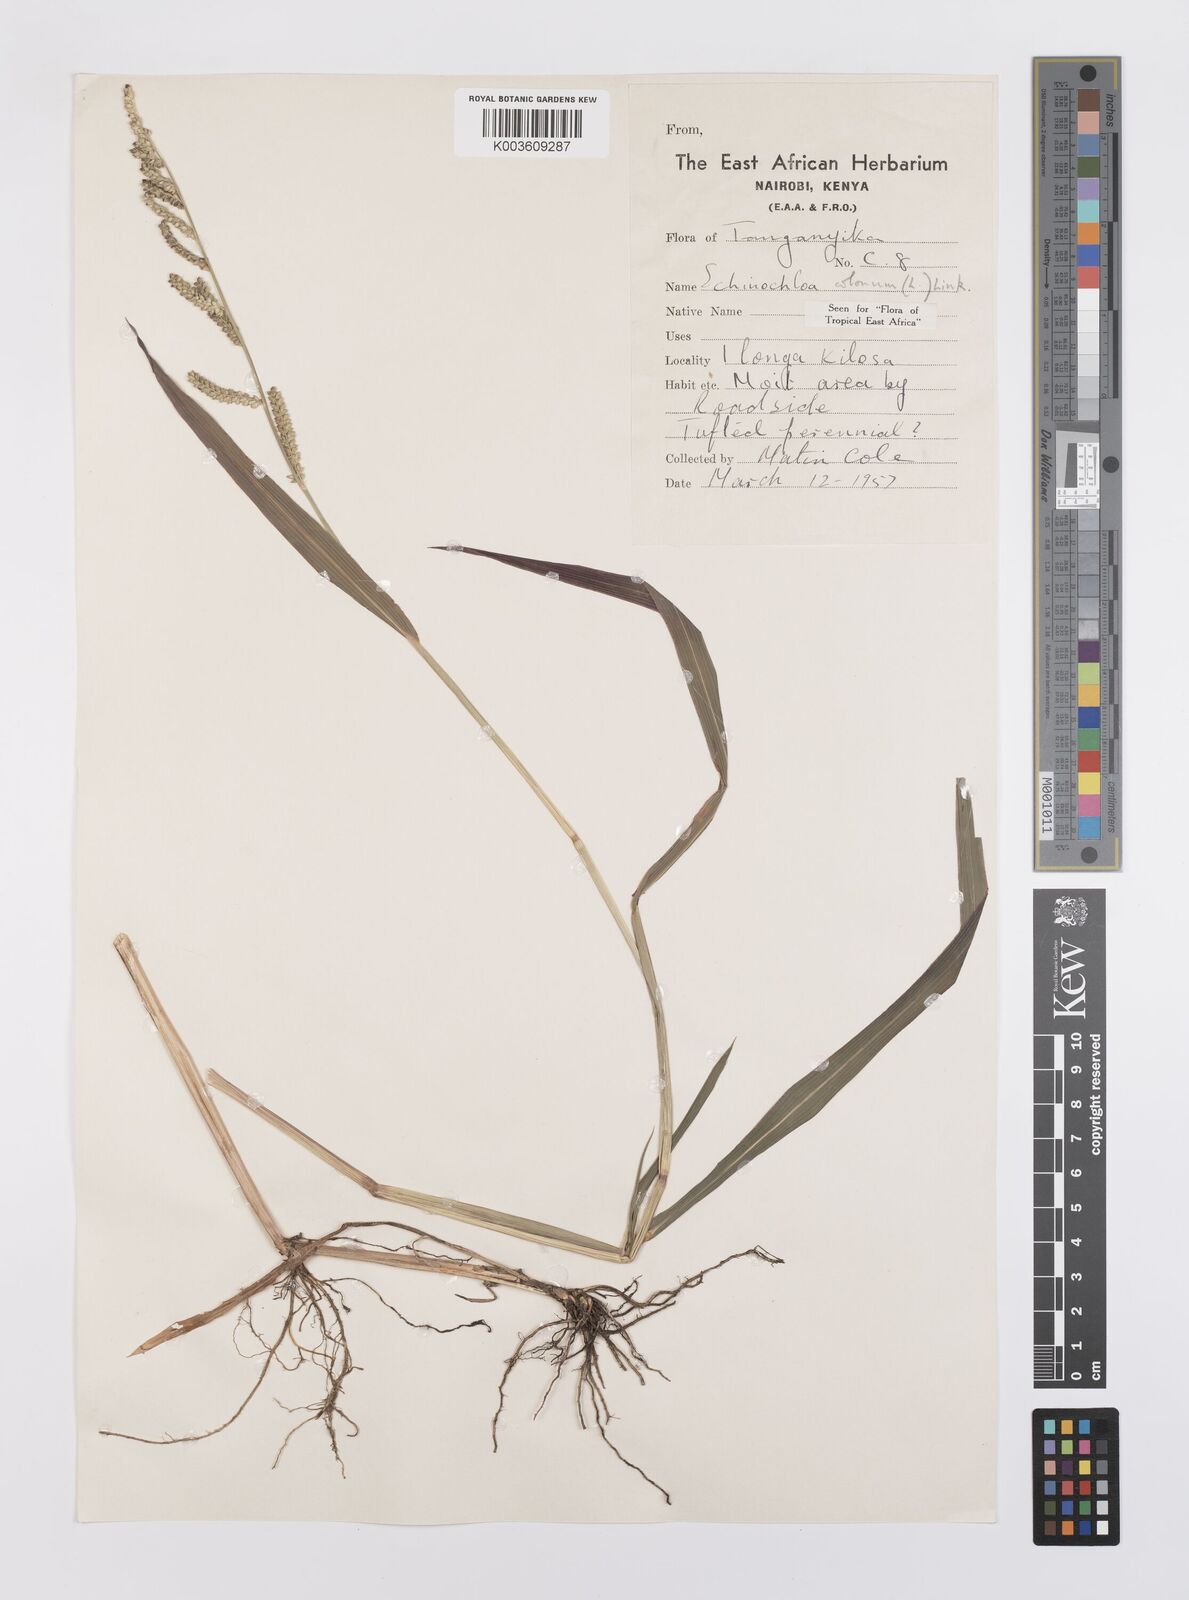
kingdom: Plantae
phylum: Tracheophyta
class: Liliopsida
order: Poales
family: Poaceae
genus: Echinochloa
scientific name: Echinochloa colonum
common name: Jungle rice
